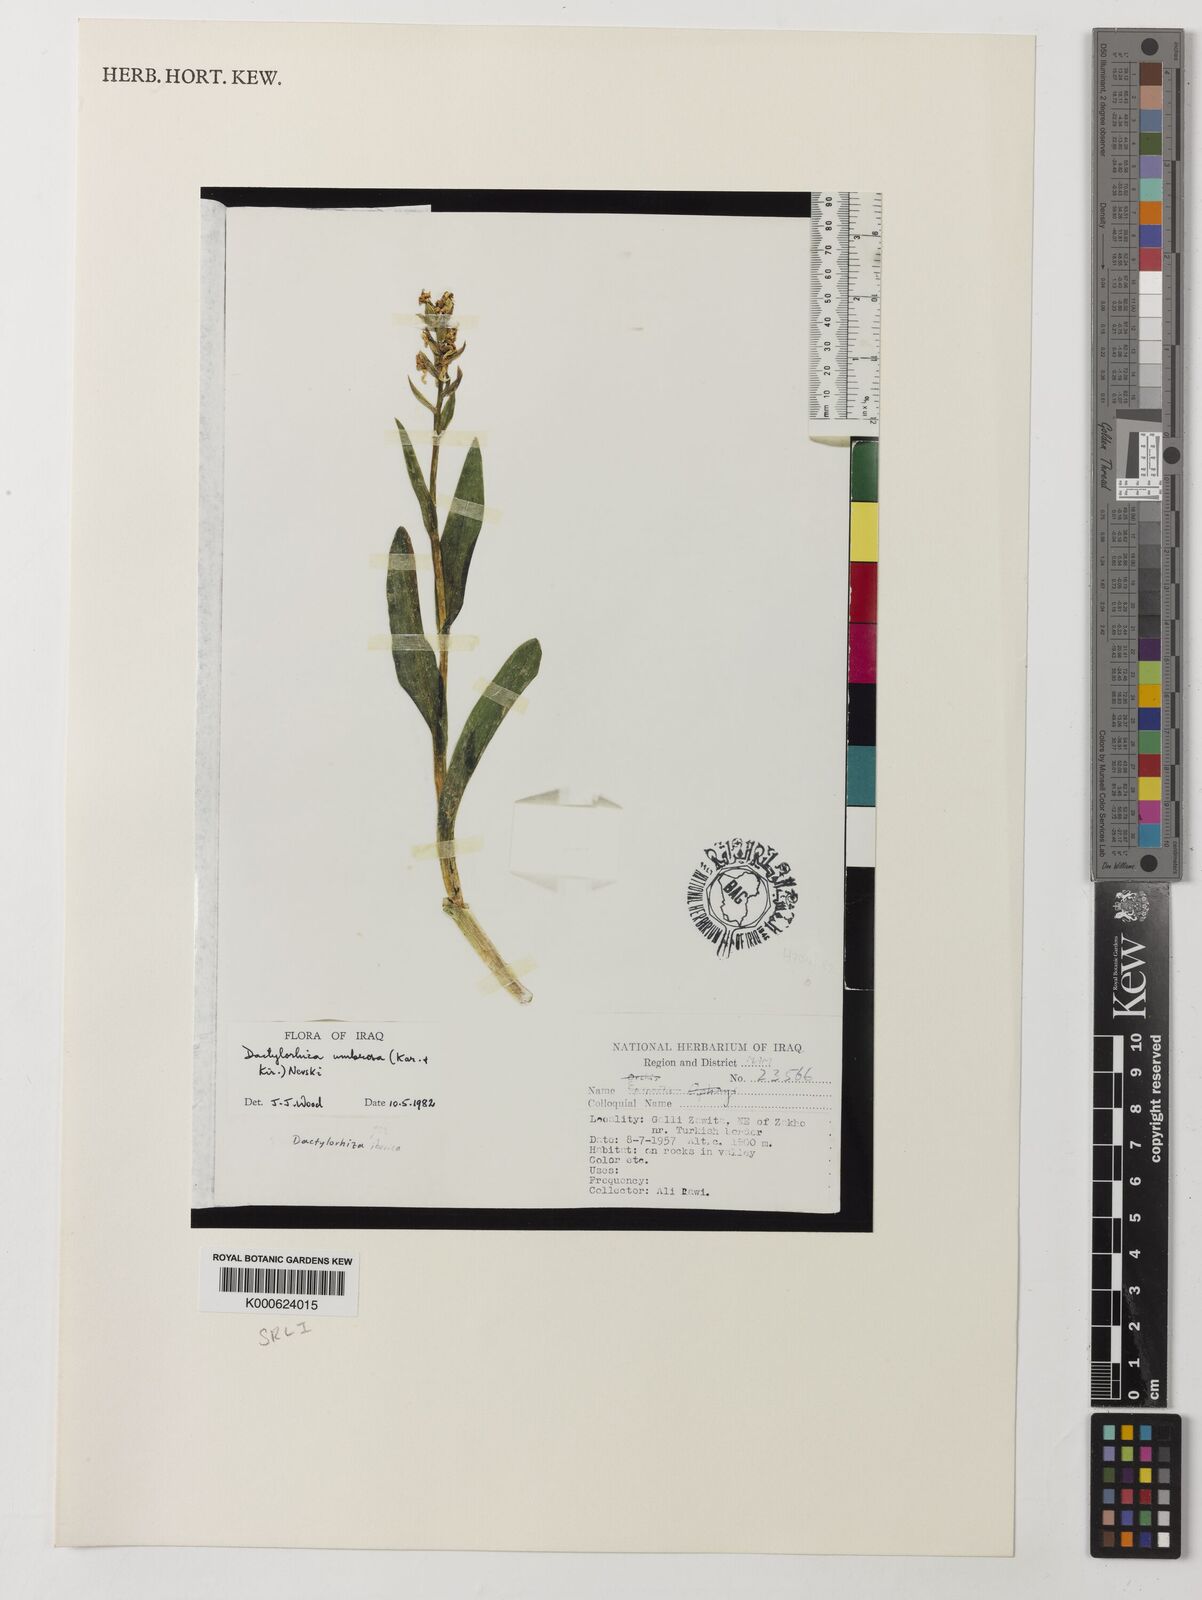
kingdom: Plantae
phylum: Tracheophyta
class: Liliopsida
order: Asparagales
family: Orchidaceae
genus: Dactylorhiza
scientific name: Dactylorhiza
